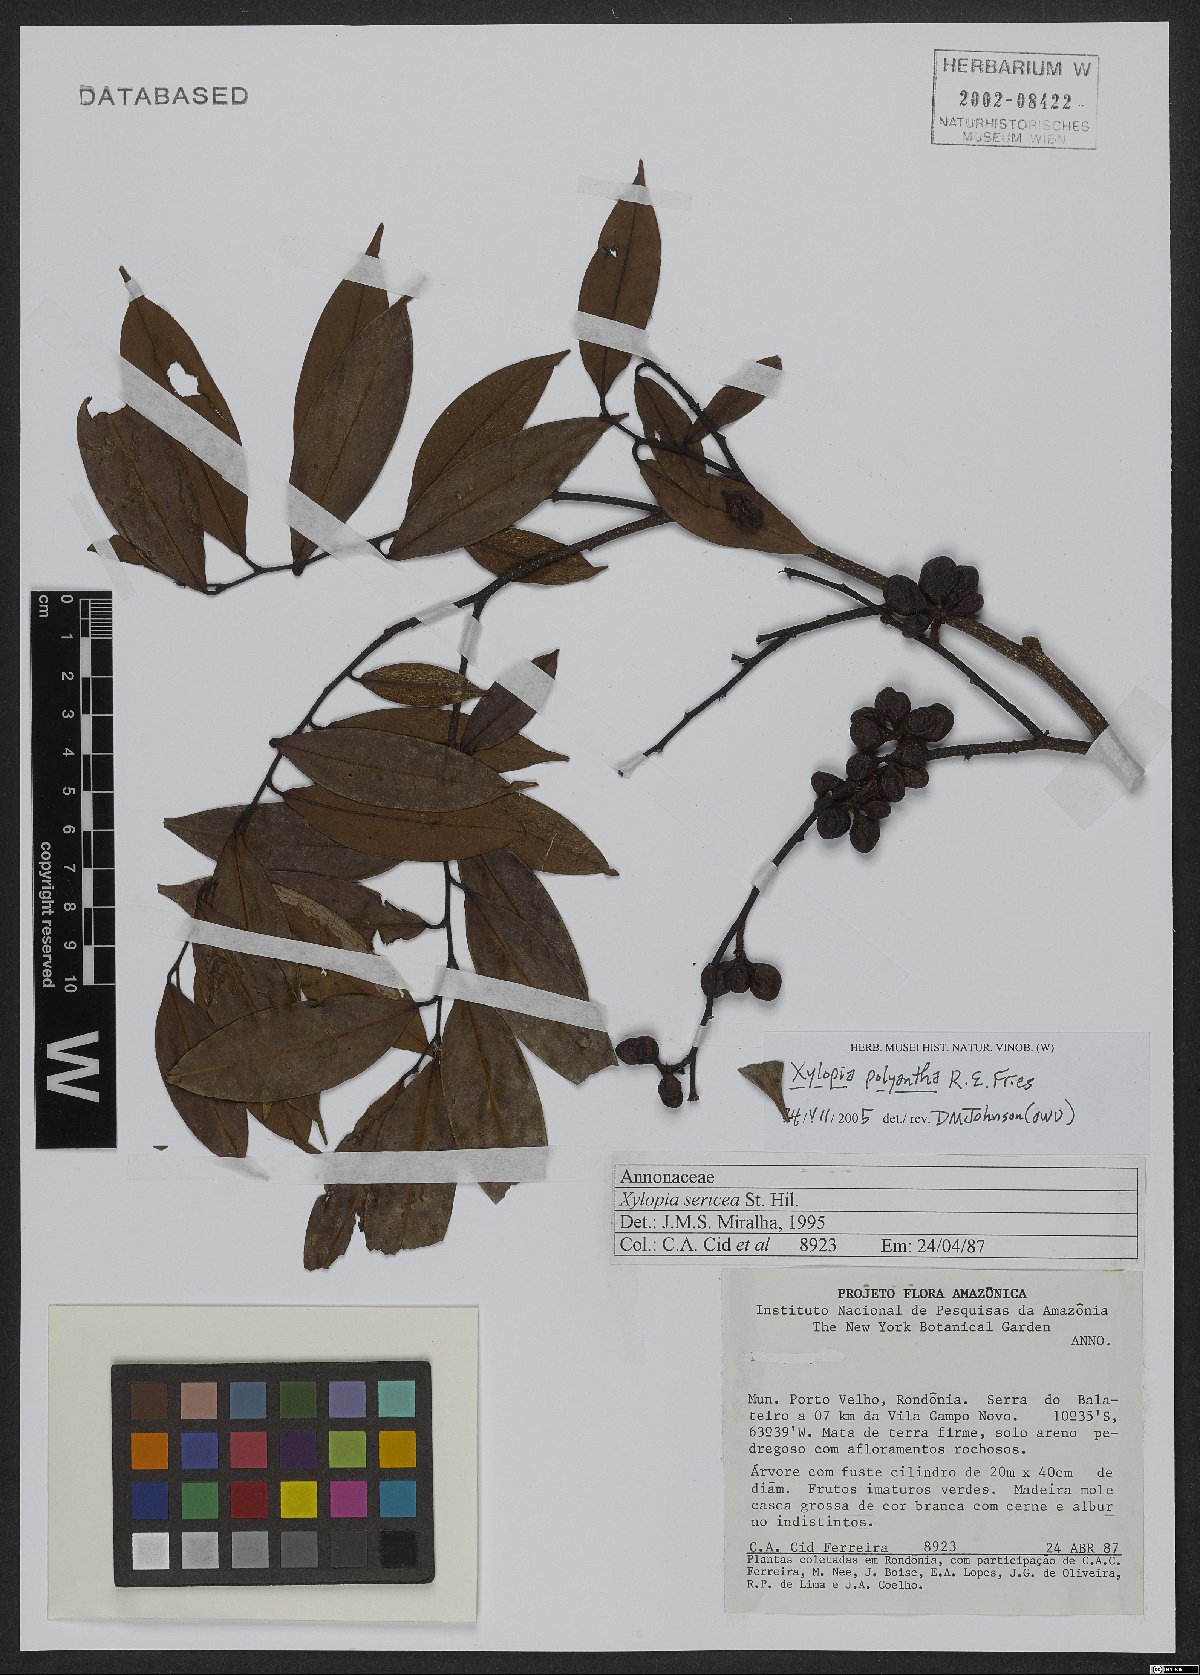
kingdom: Plantae
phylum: Tracheophyta
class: Magnoliopsida
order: Magnoliales
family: Annonaceae
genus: Xylopia
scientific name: Xylopia polyantha
